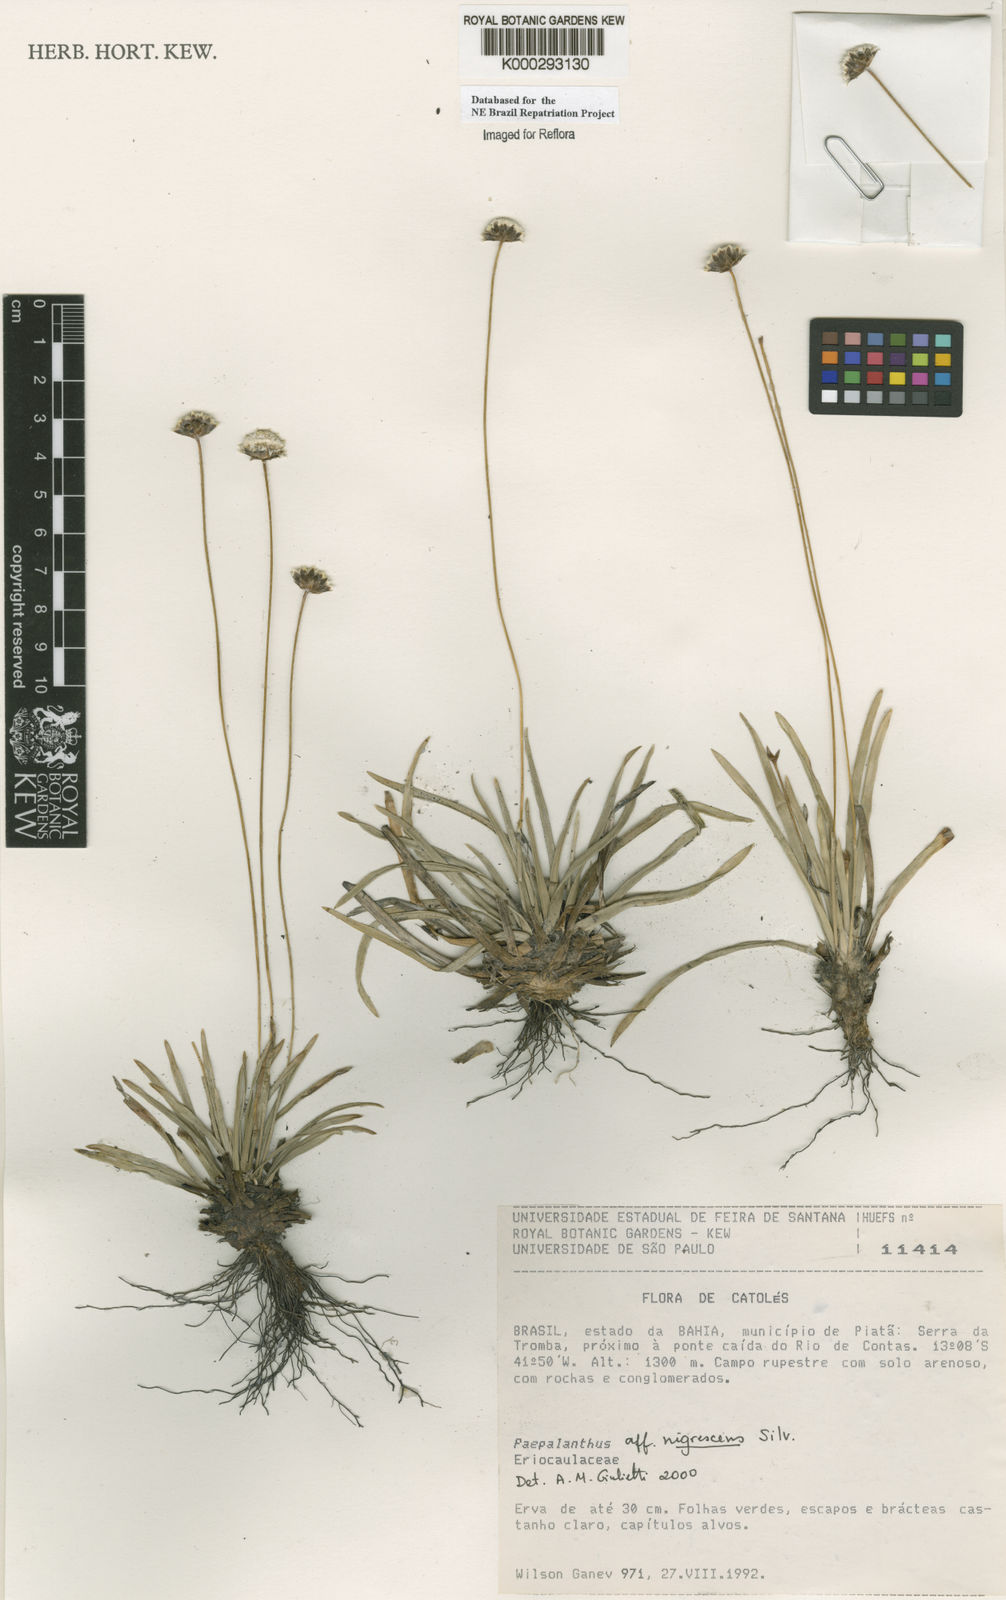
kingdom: Plantae
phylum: Tracheophyta
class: Liliopsida
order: Poales
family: Eriocaulaceae
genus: Paepalanthus
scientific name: Paepalanthus nigrescens
